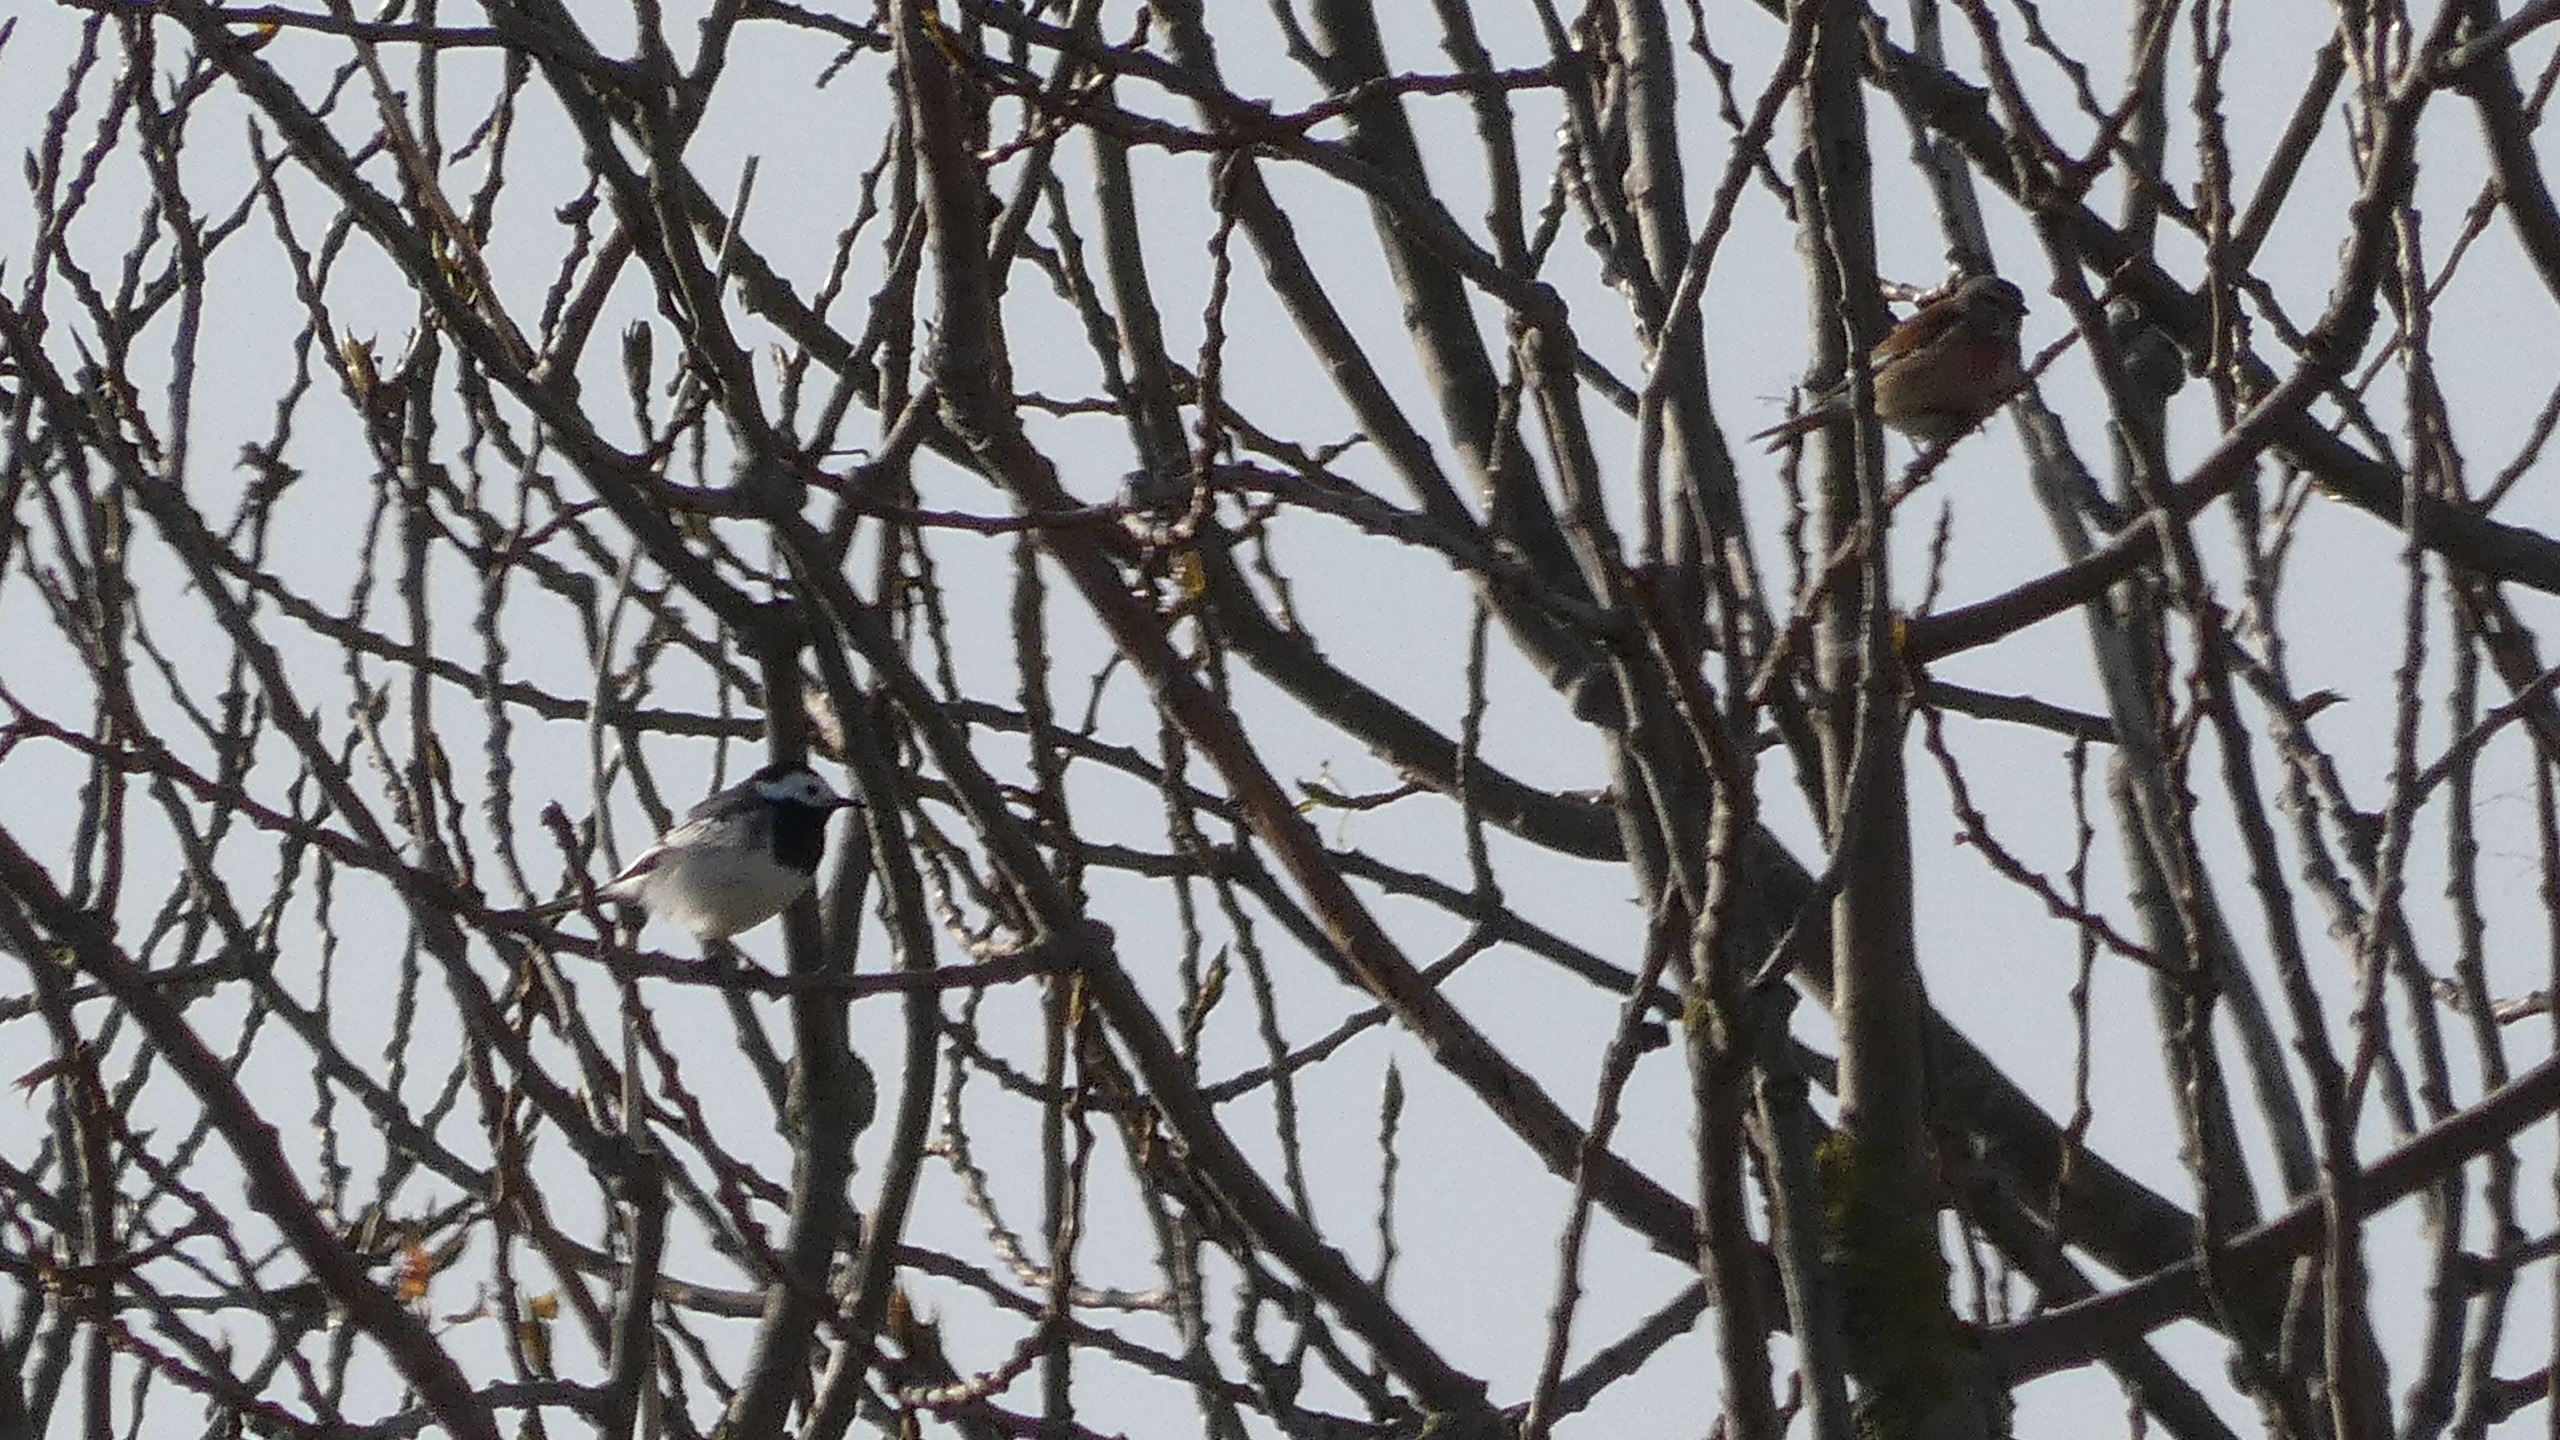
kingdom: Animalia
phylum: Chordata
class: Aves
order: Passeriformes
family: Fringillidae
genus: Linaria
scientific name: Linaria cannabina
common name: Tornirisk
